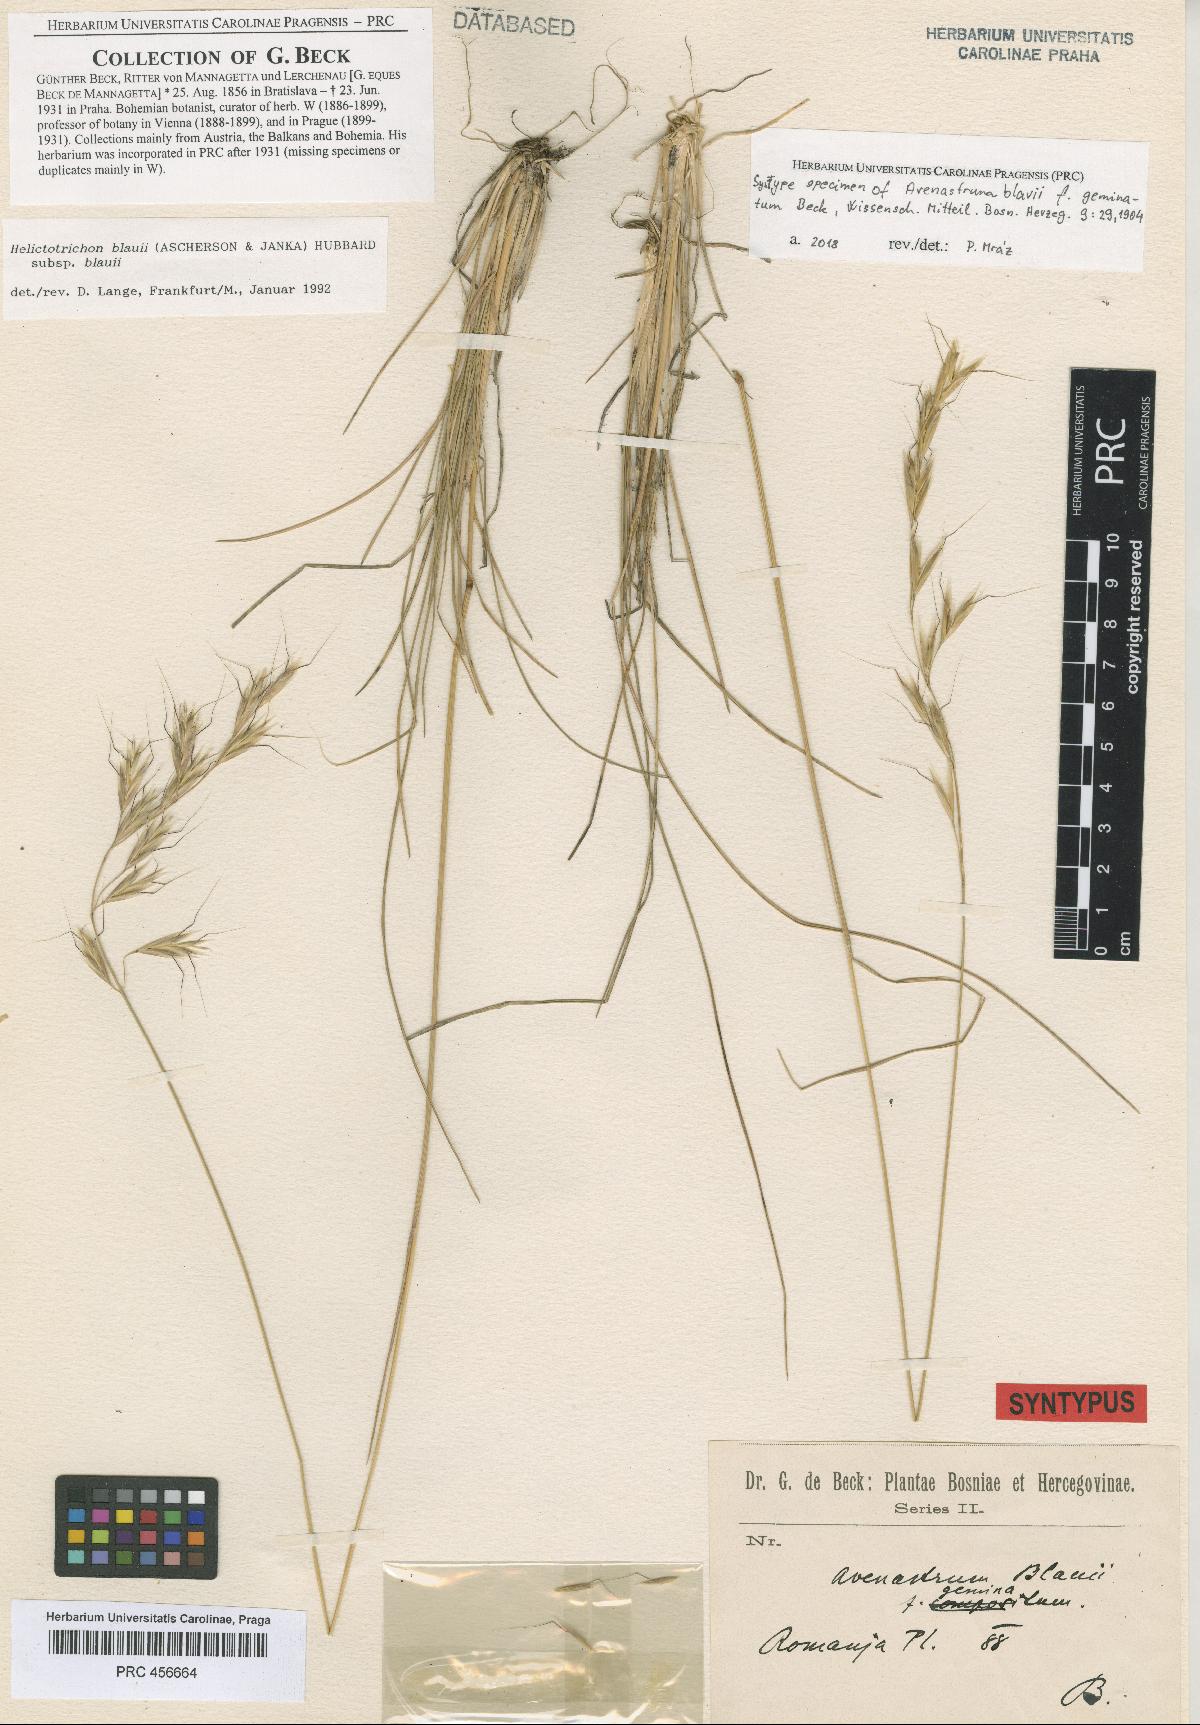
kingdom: Plantae
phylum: Tracheophyta
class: Liliopsida
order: Poales
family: Poaceae
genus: Helictochloa
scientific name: Helictochloa blaui
